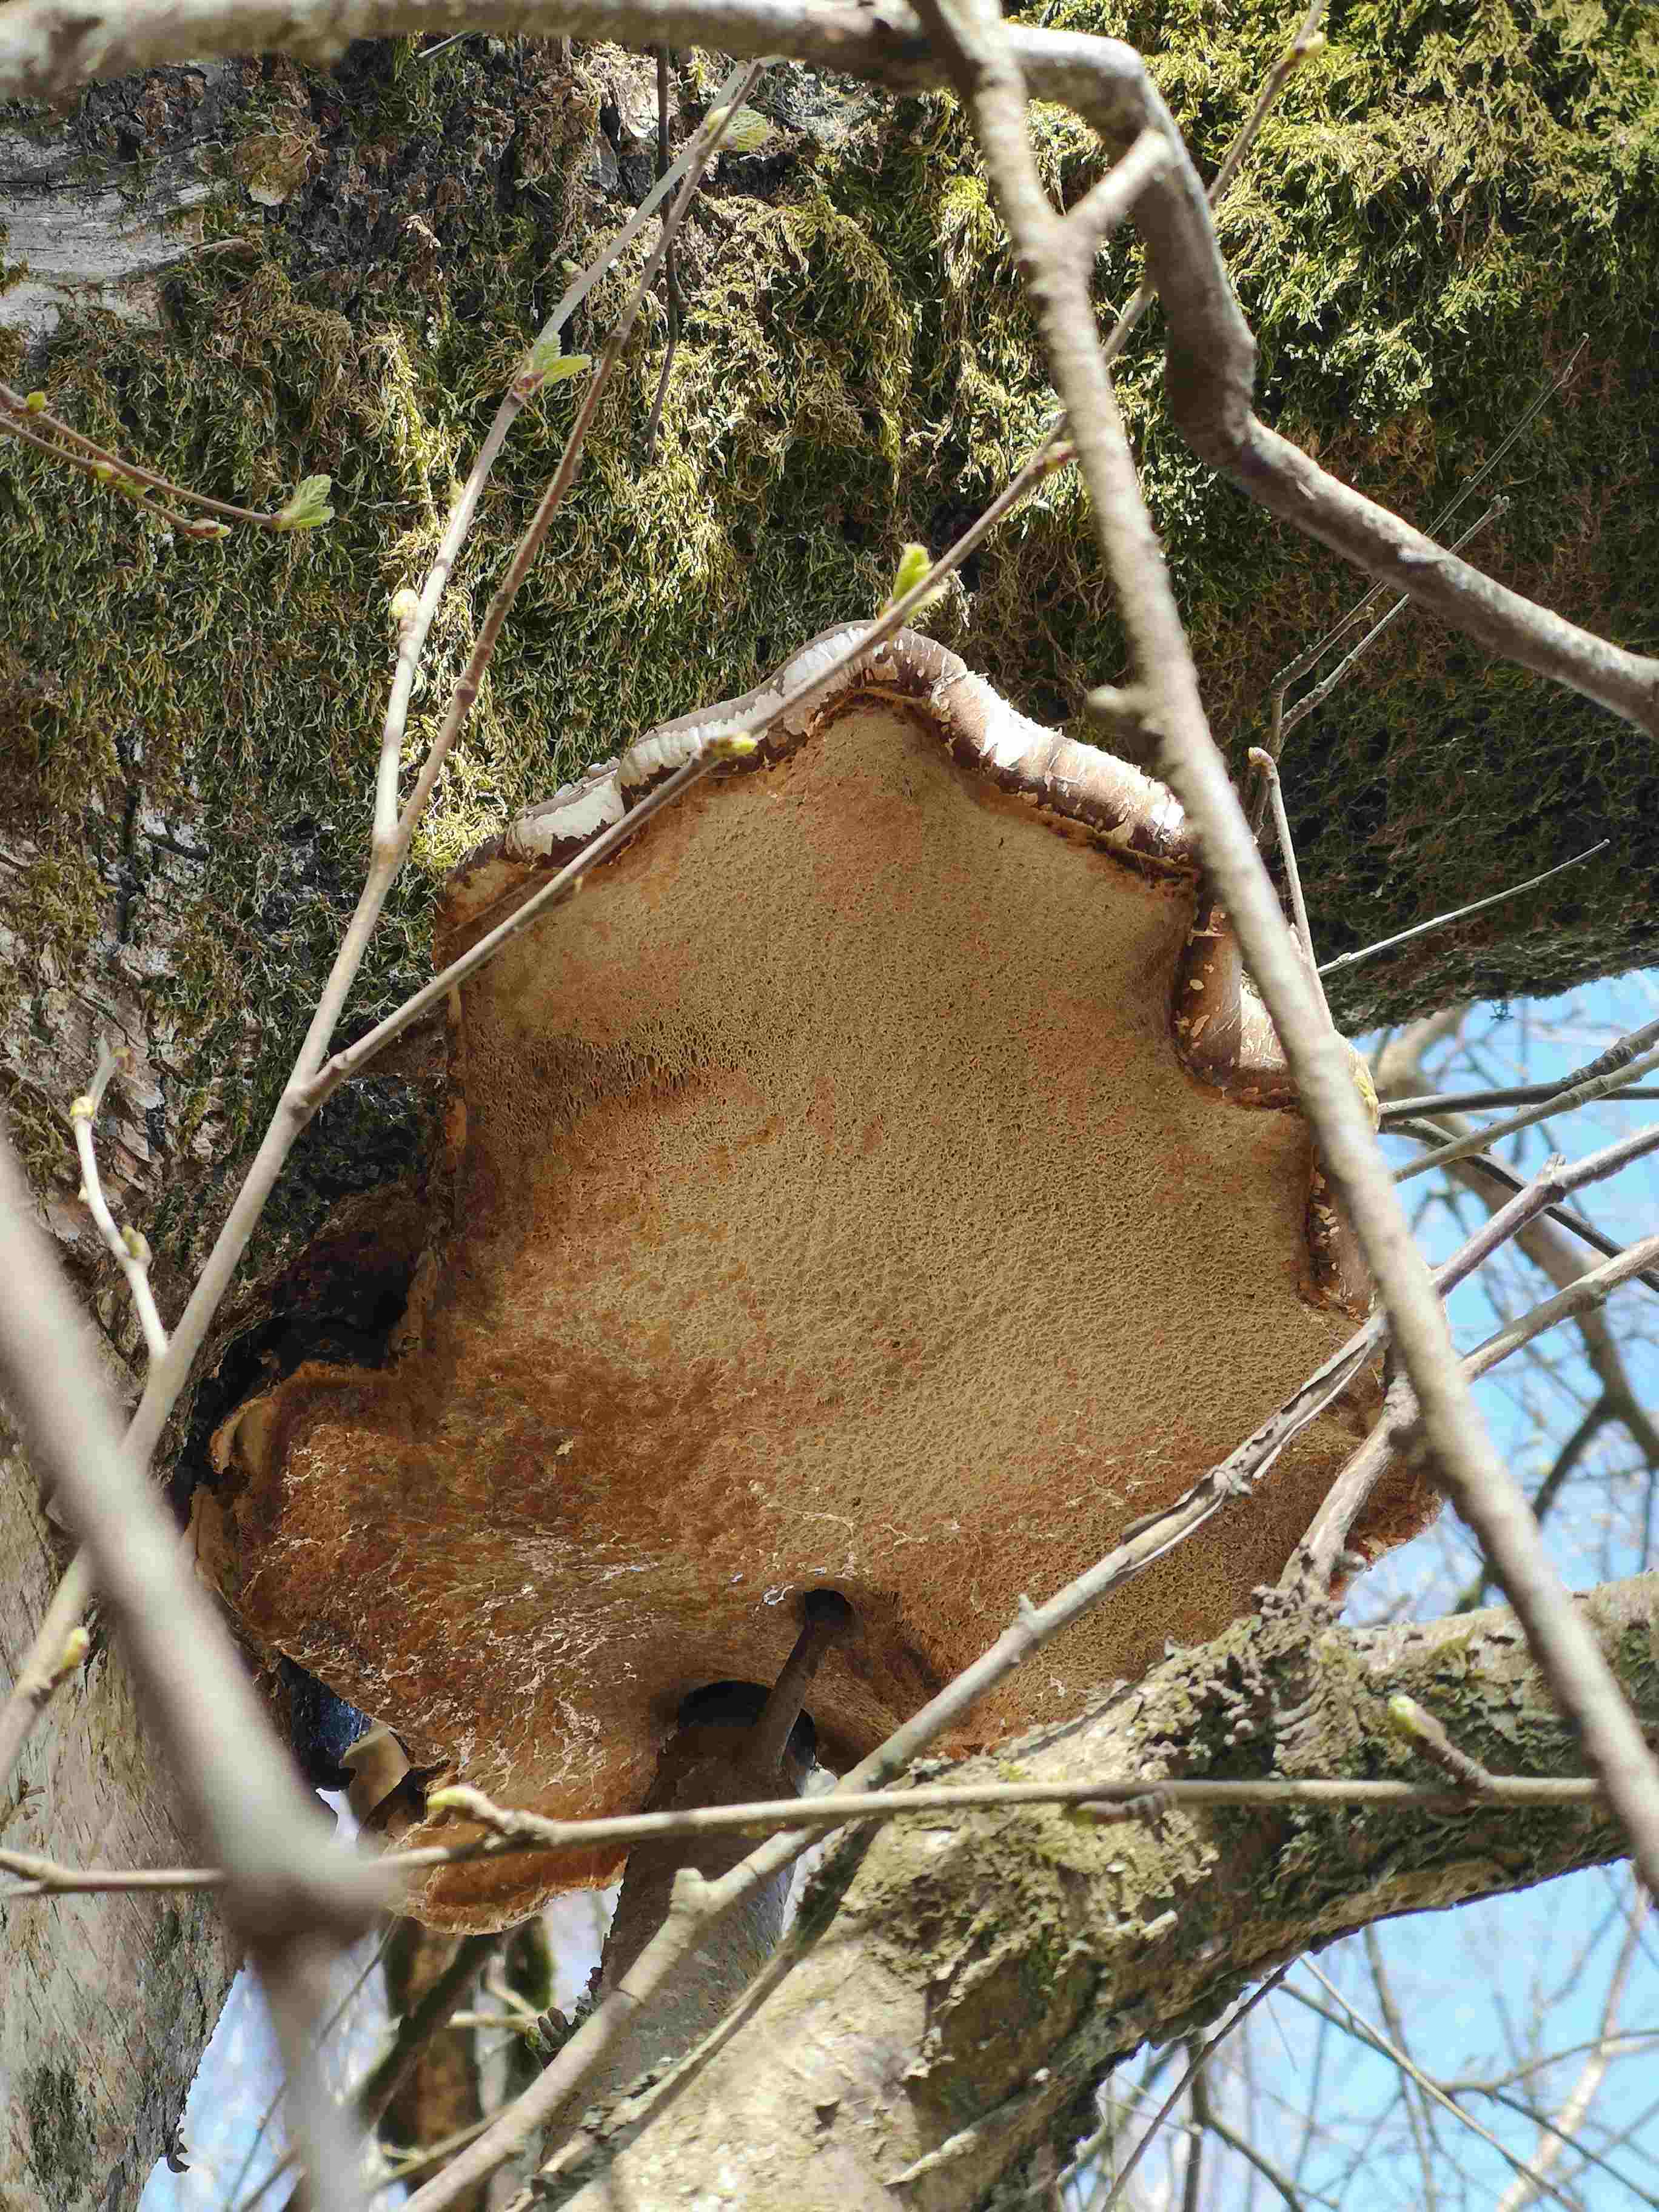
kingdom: Fungi
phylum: Basidiomycota
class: Agaricomycetes
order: Polyporales
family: Fomitopsidaceae
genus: Fomitopsis
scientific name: Fomitopsis betulina
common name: birkeporesvamp
